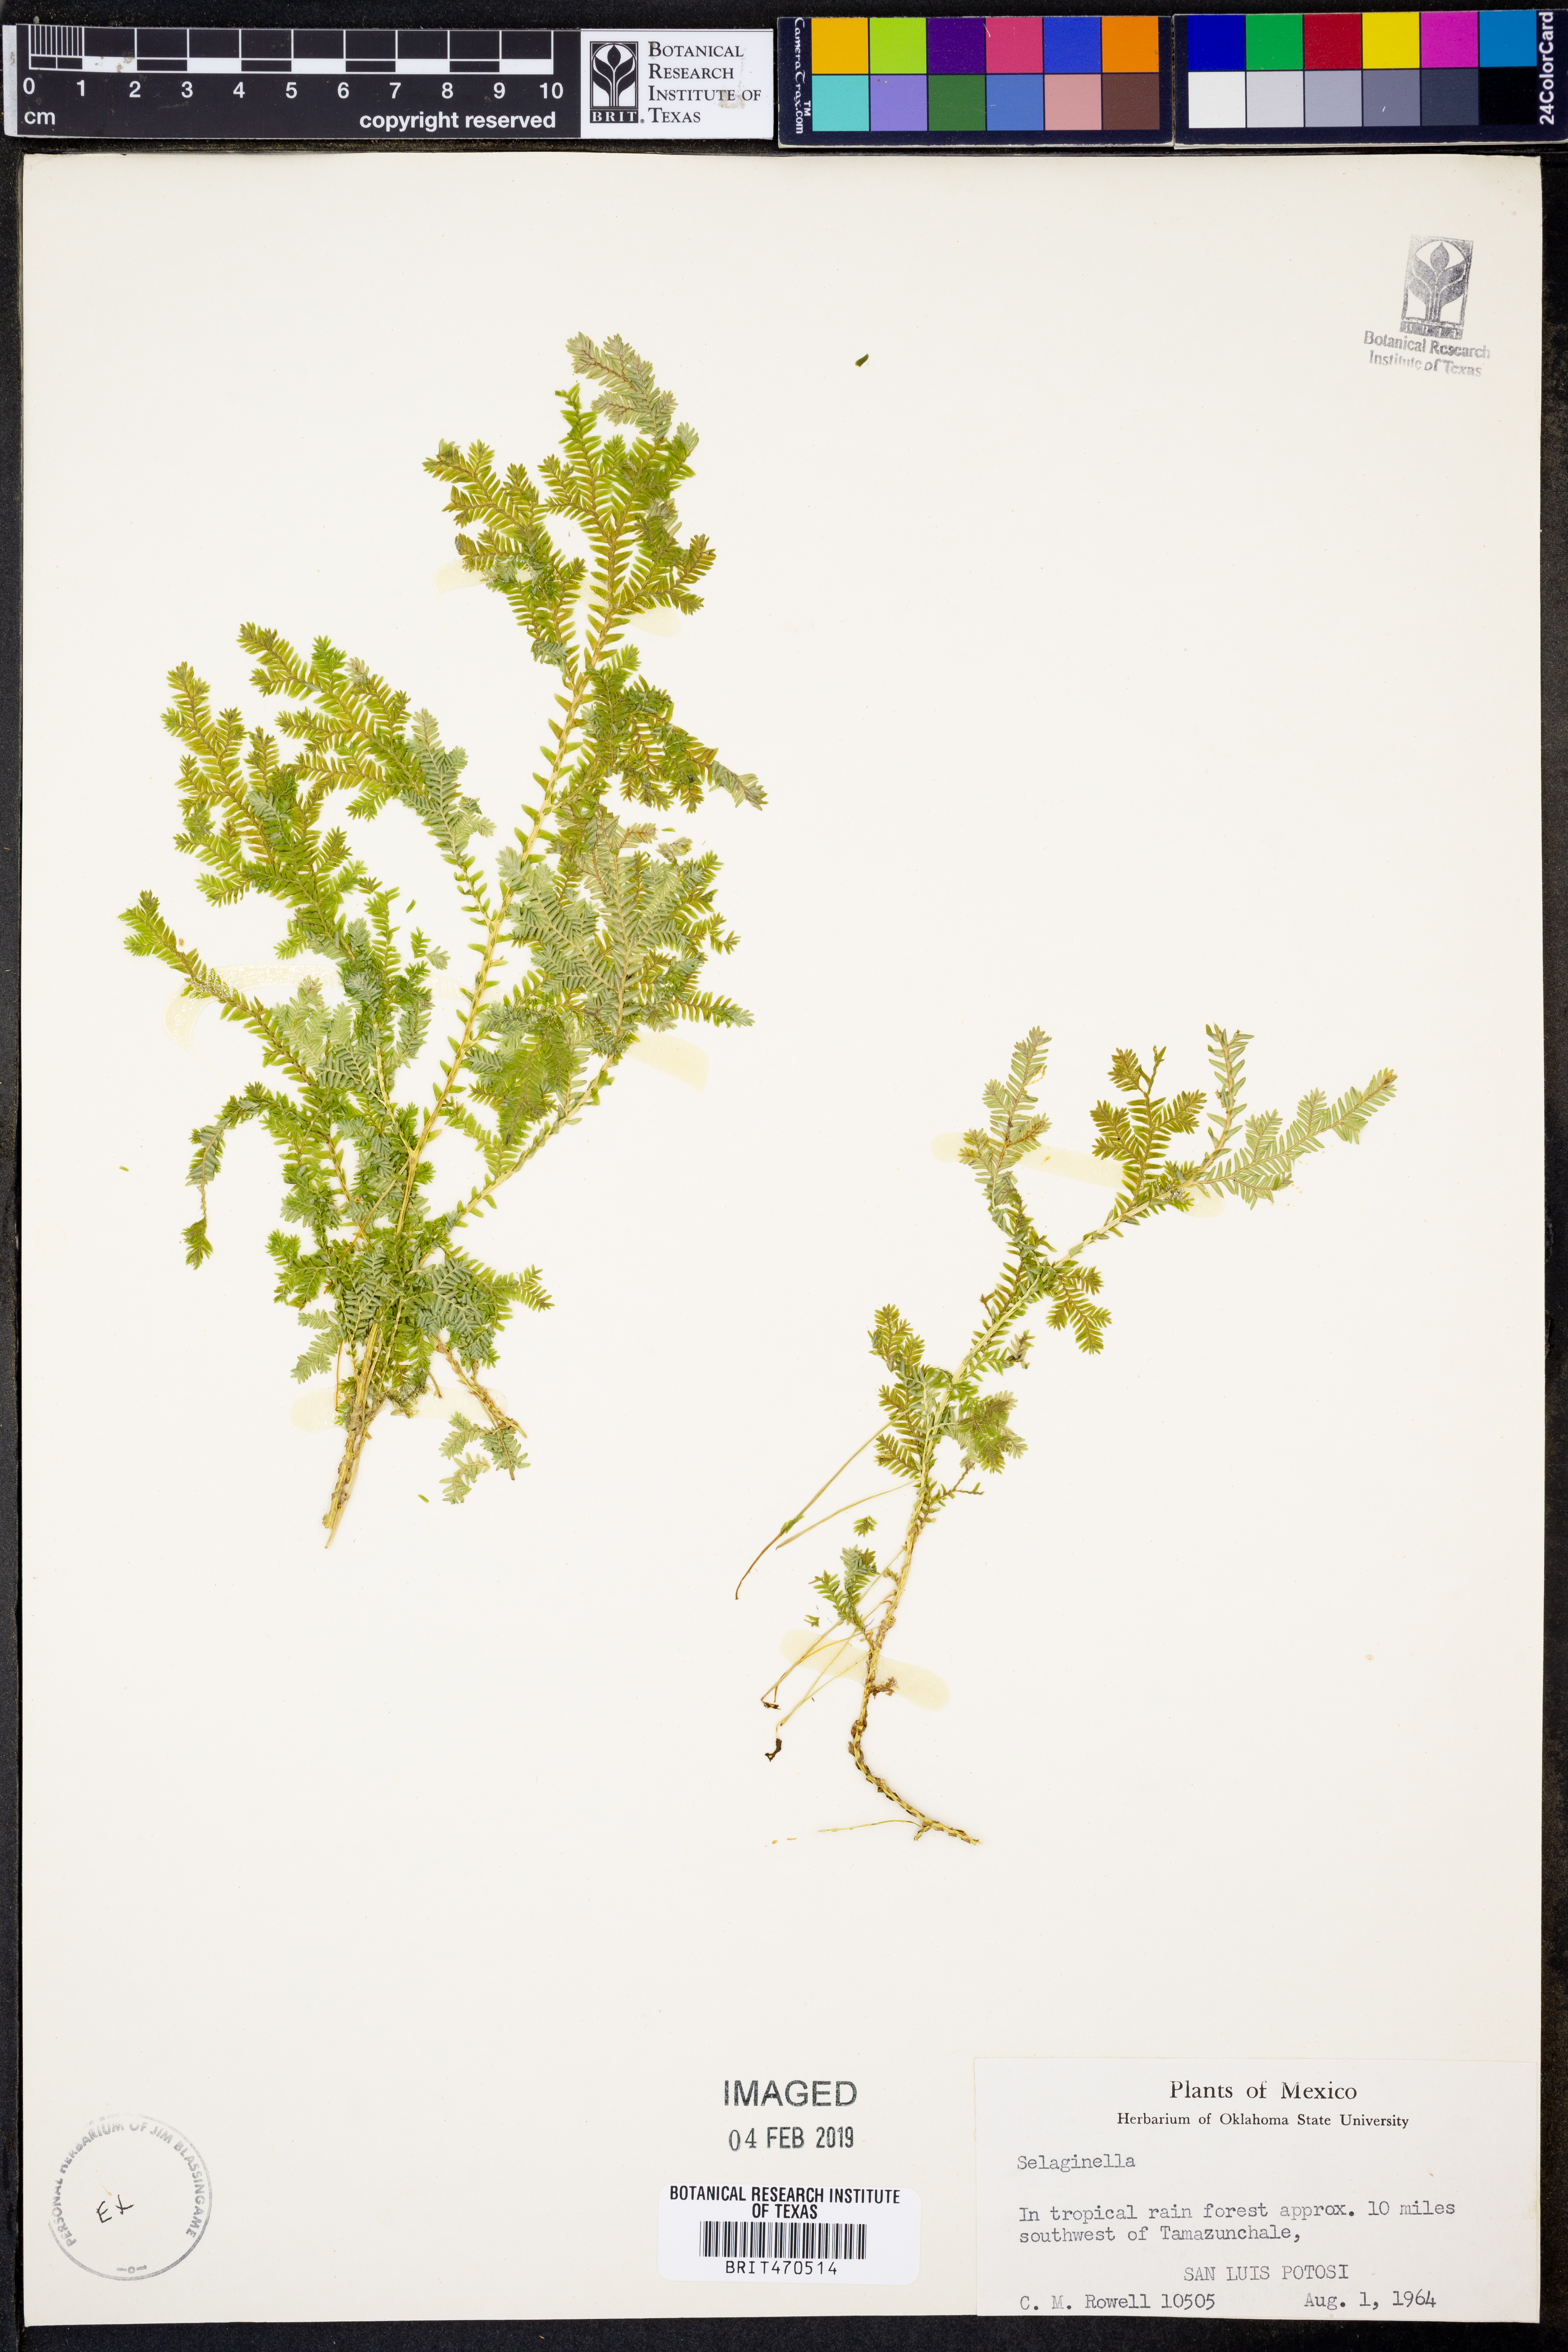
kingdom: Plantae
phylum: Tracheophyta
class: Lycopodiopsida
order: Selaginellales
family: Selaginellaceae
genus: Selaginella
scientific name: Selaginella
